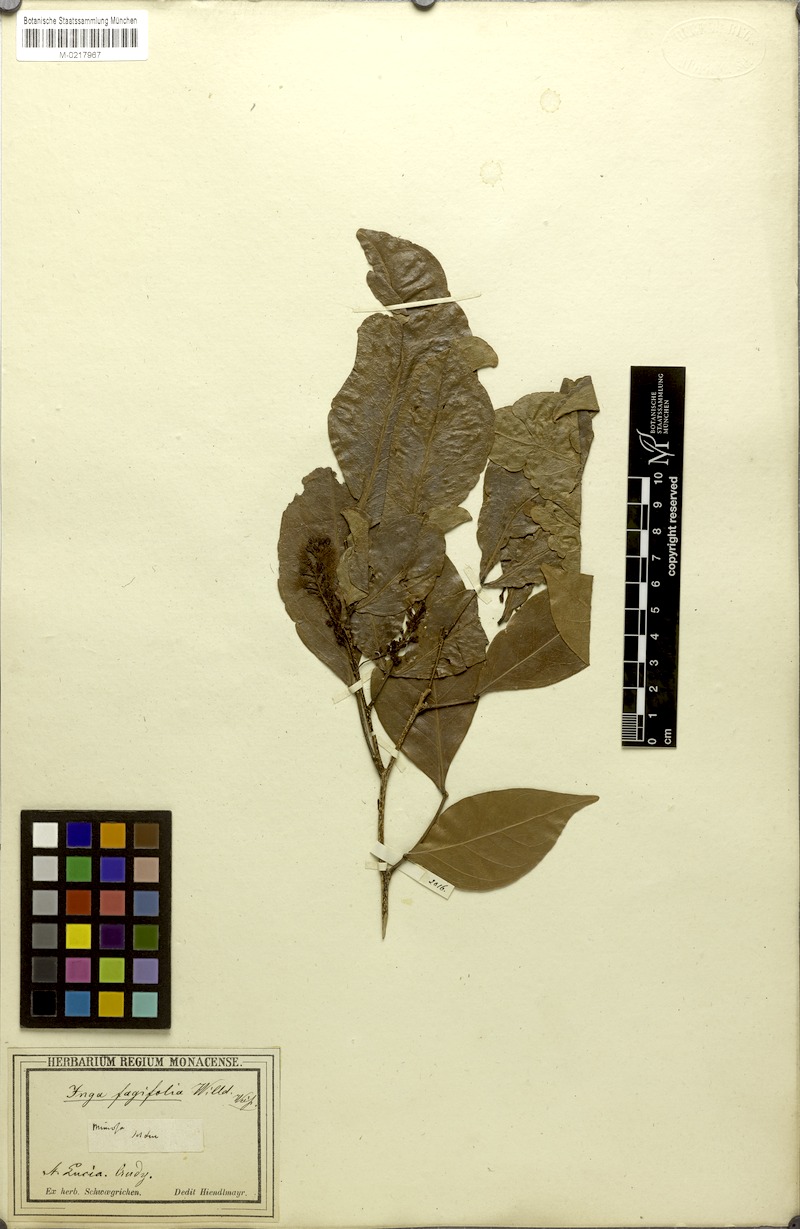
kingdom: Plantae
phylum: Tracheophyta
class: Magnoliopsida
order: Fabales
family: Fabaceae
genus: Inga
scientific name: Inga laurina
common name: Red wood
